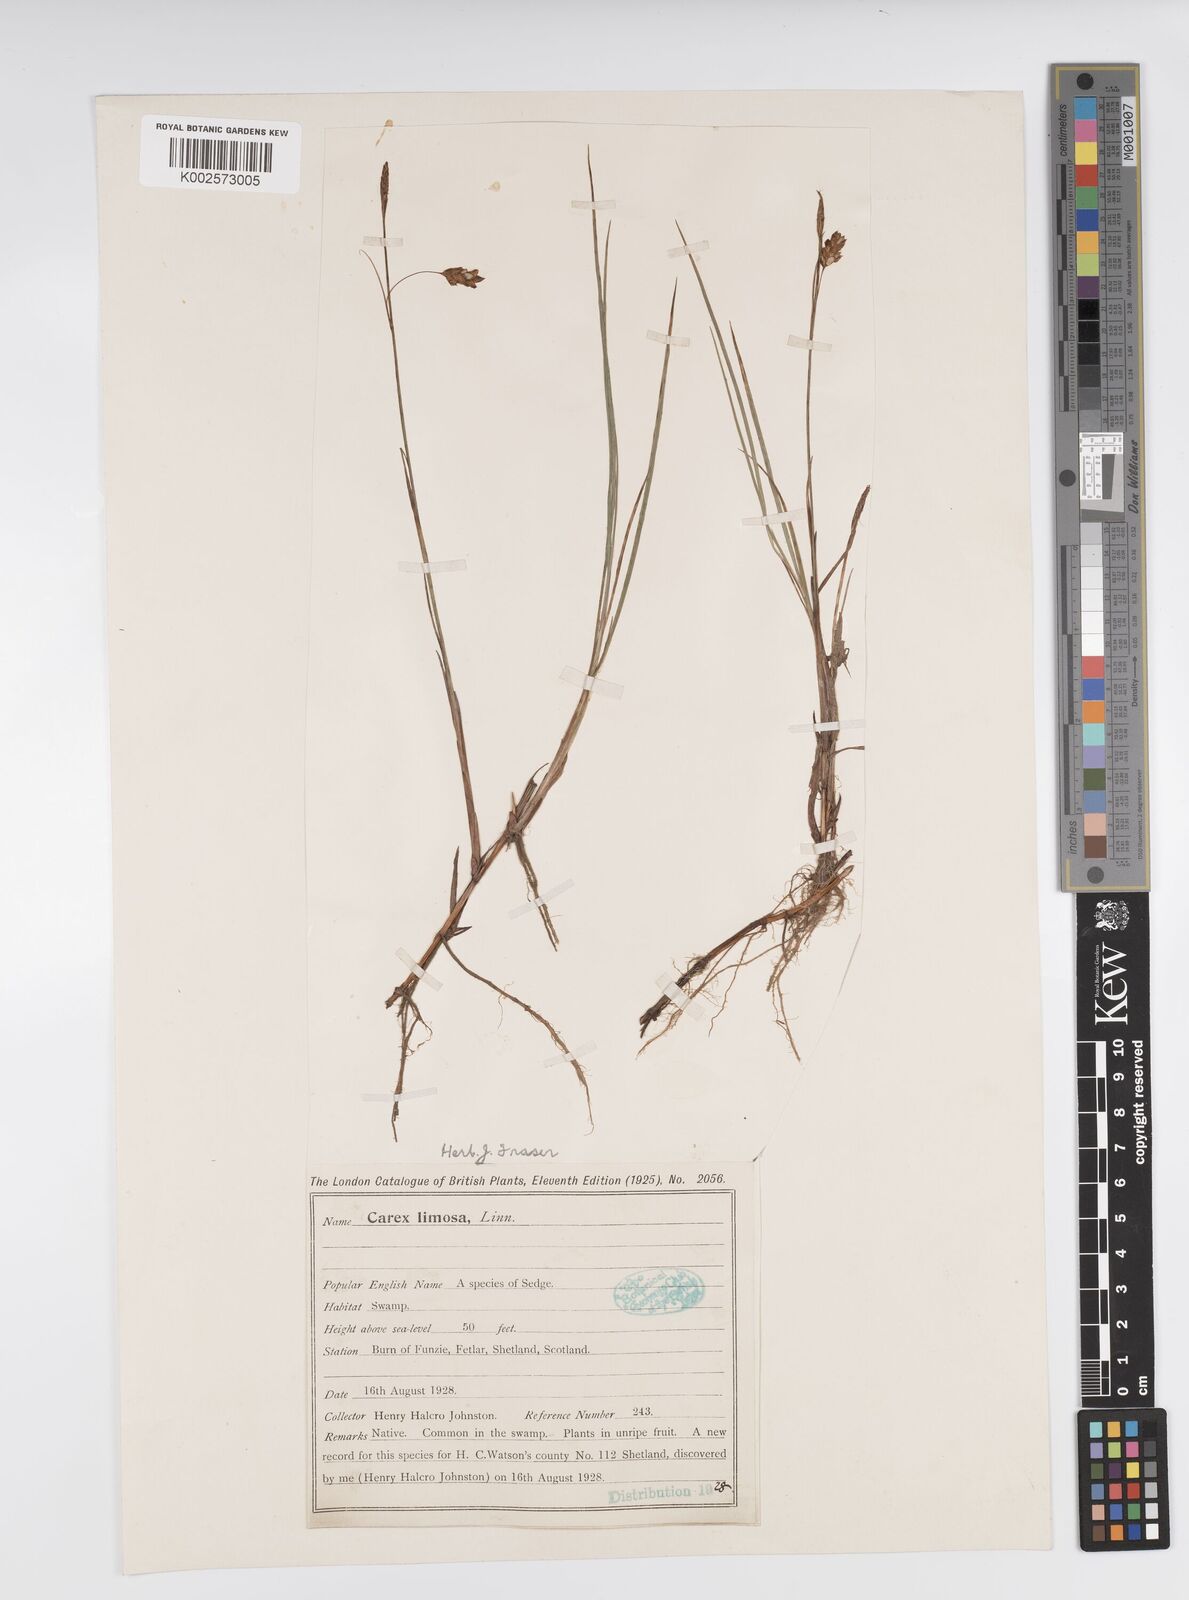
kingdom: Plantae
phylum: Tracheophyta
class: Liliopsida
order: Poales
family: Cyperaceae
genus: Carex
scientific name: Carex limosa
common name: Bog sedge
